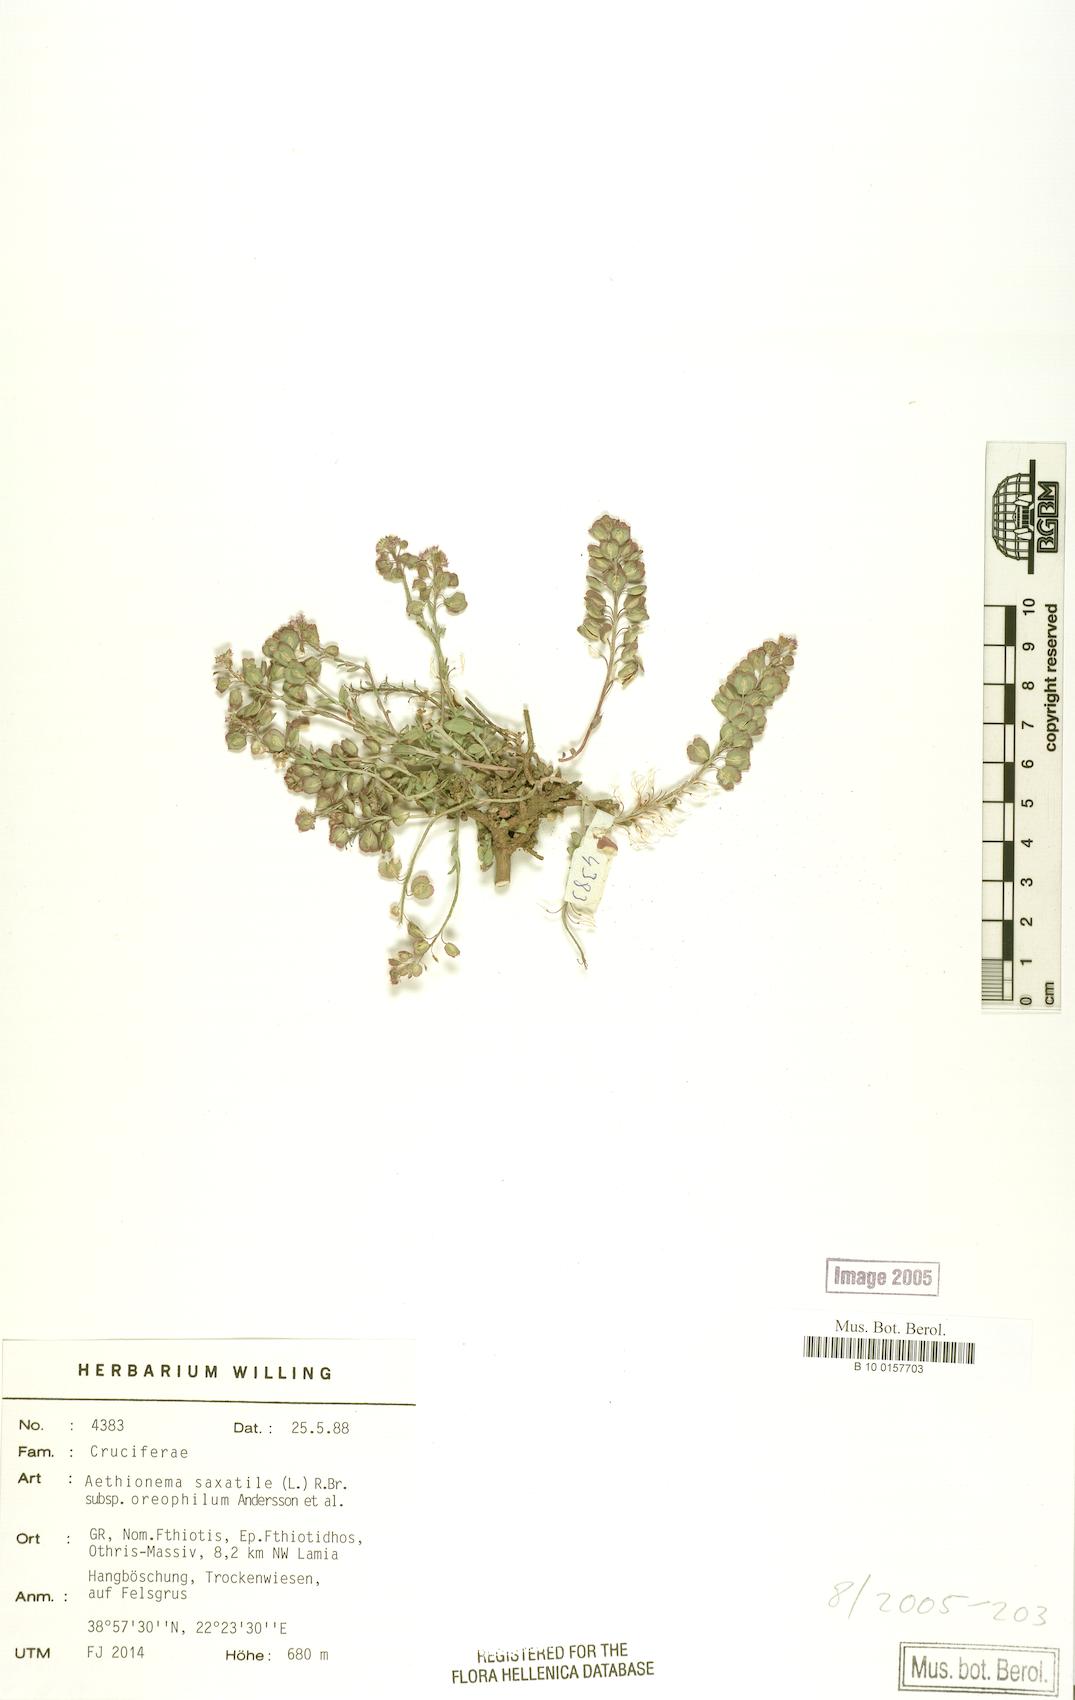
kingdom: Plantae
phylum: Tracheophyta
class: Magnoliopsida
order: Brassicales
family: Brassicaceae
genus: Aethionema
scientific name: Aethionema saxatile
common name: Burnt candytuft
